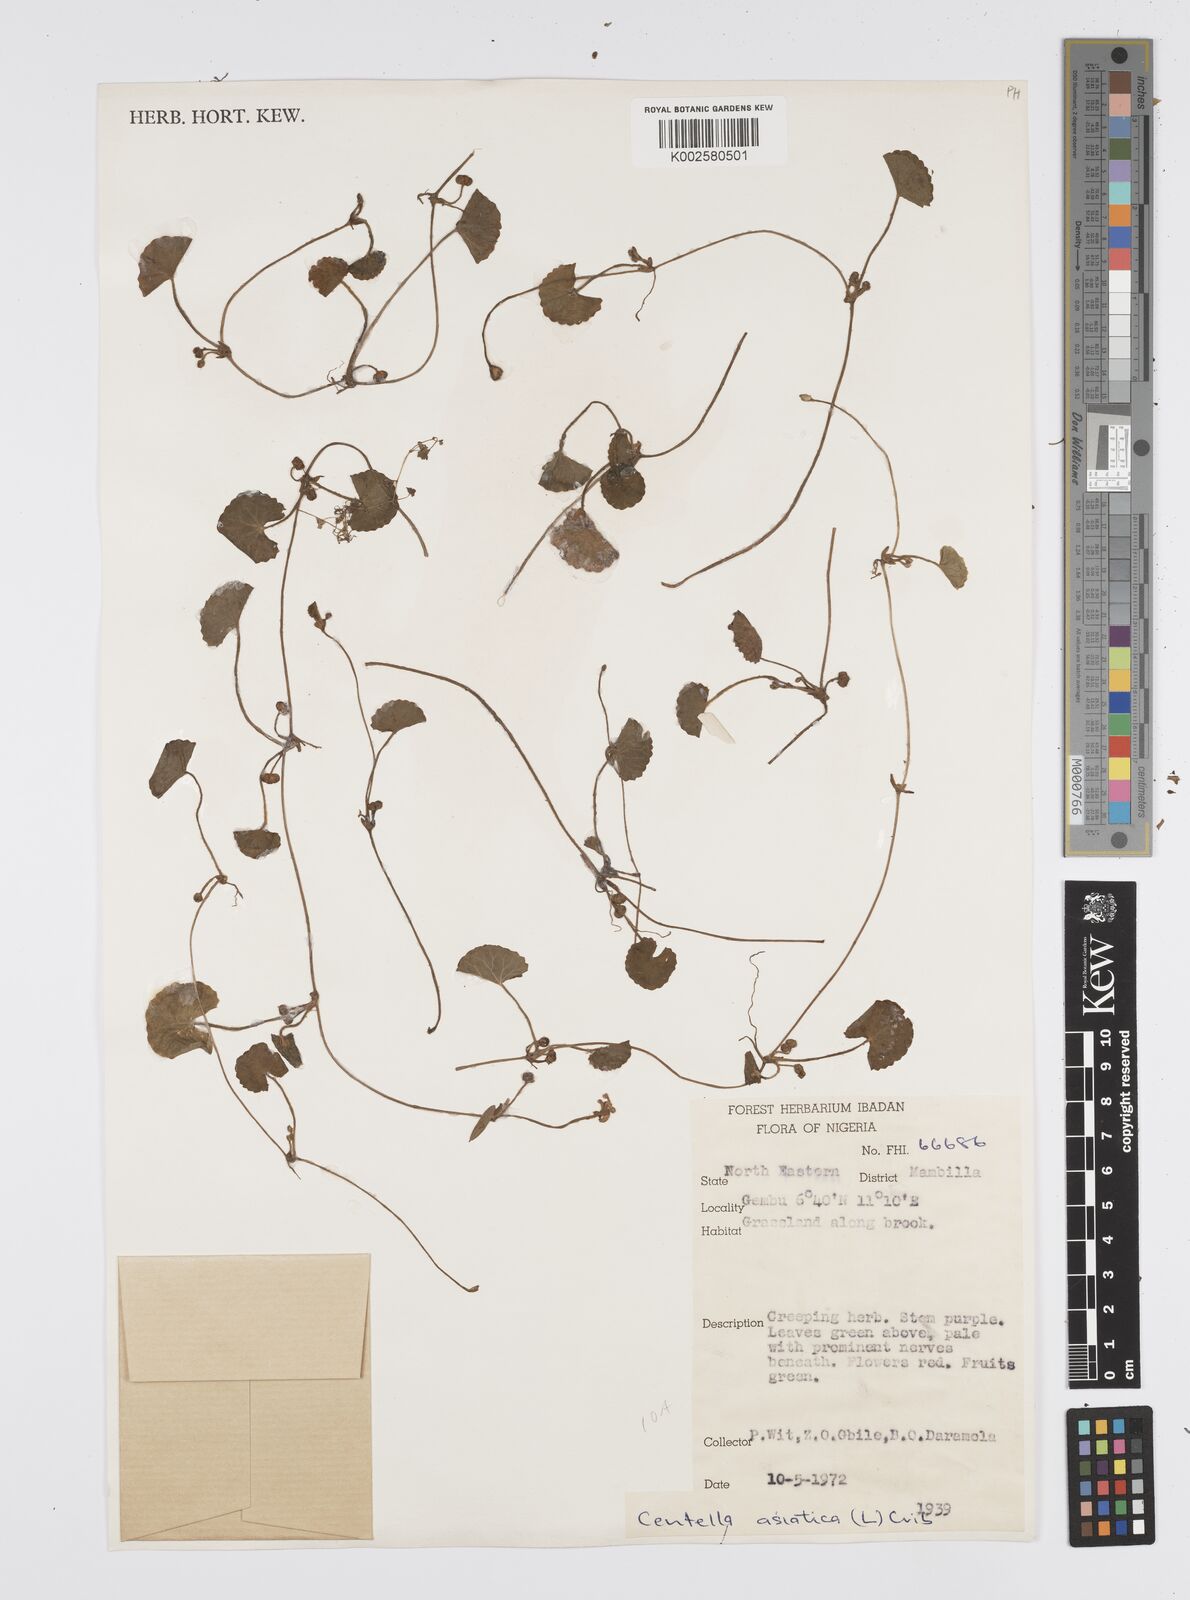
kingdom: Plantae
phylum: Tracheophyta
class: Magnoliopsida
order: Apiales
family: Apiaceae
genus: Centella
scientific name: Centella asiatica
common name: Spadeleaf
